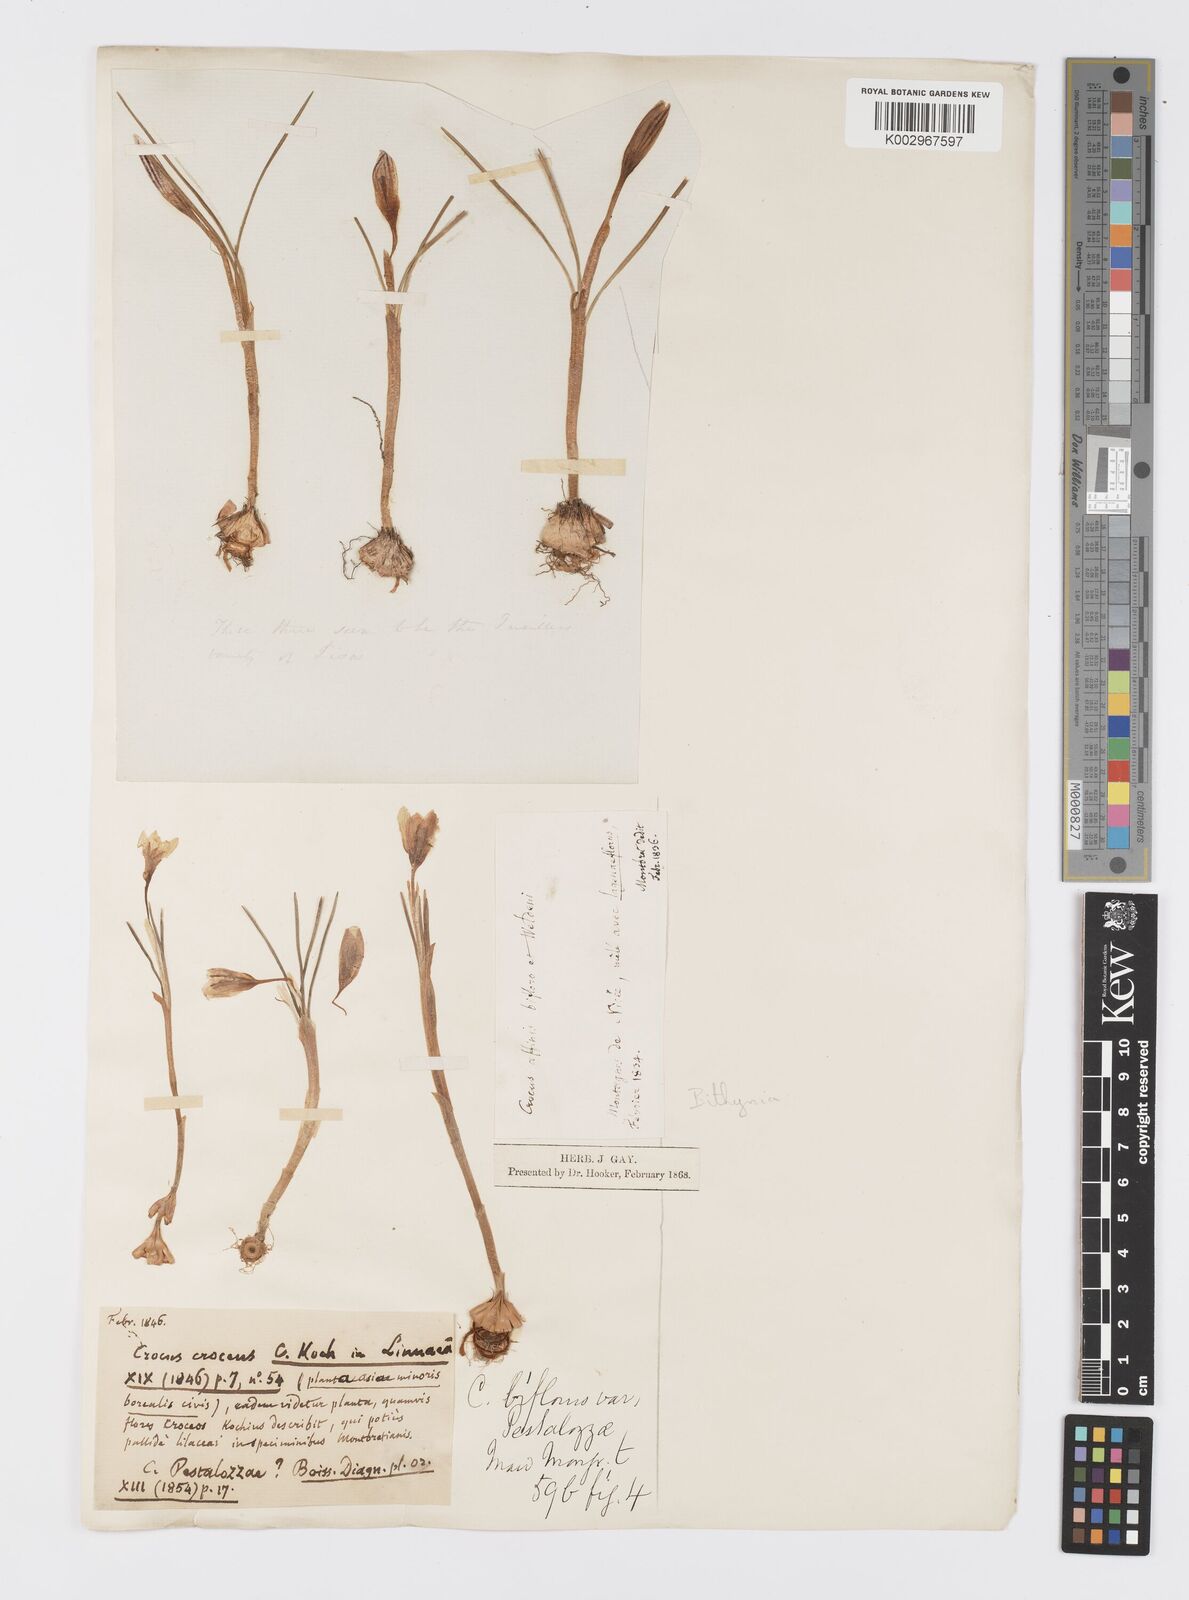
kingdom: Plantae
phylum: Tracheophyta
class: Liliopsida
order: Asparagales
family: Iridaceae
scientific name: Iridaceae
